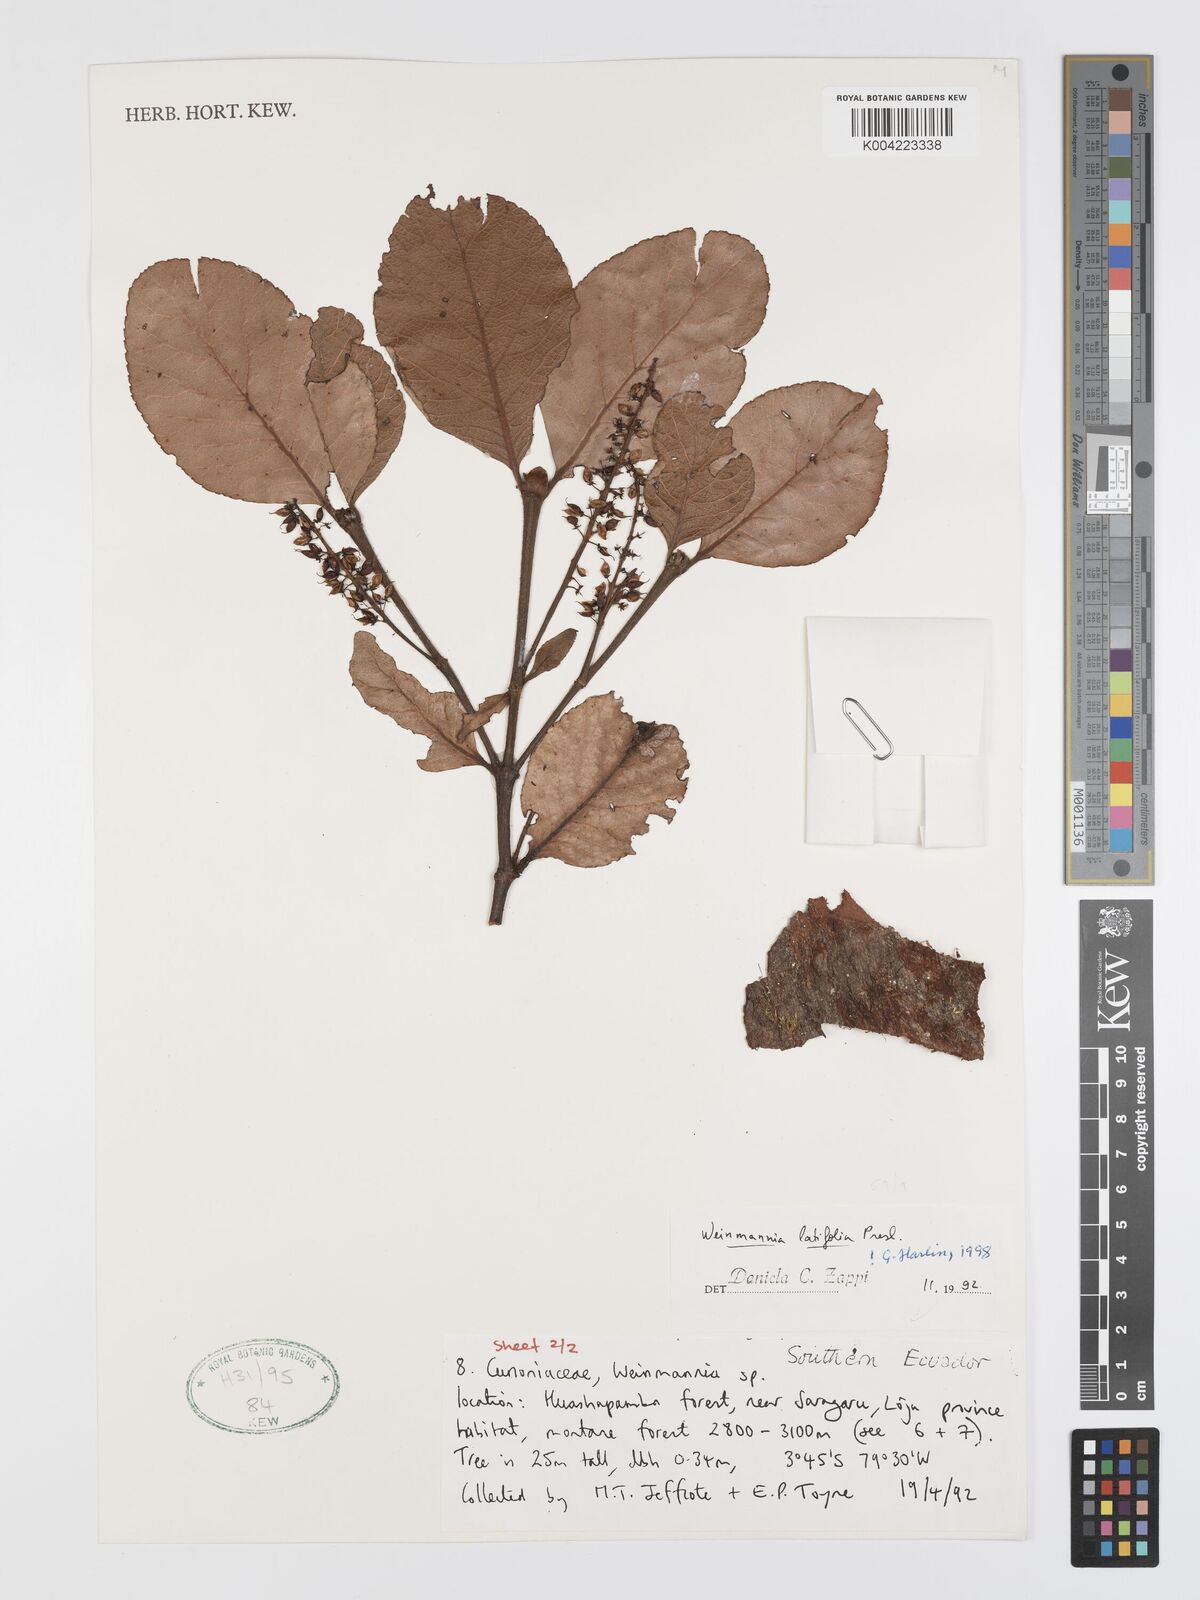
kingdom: Plantae
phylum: Tracheophyta
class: Magnoliopsida
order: Oxalidales
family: Cunoniaceae
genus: Weinmannia
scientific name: Weinmannia latifolia
